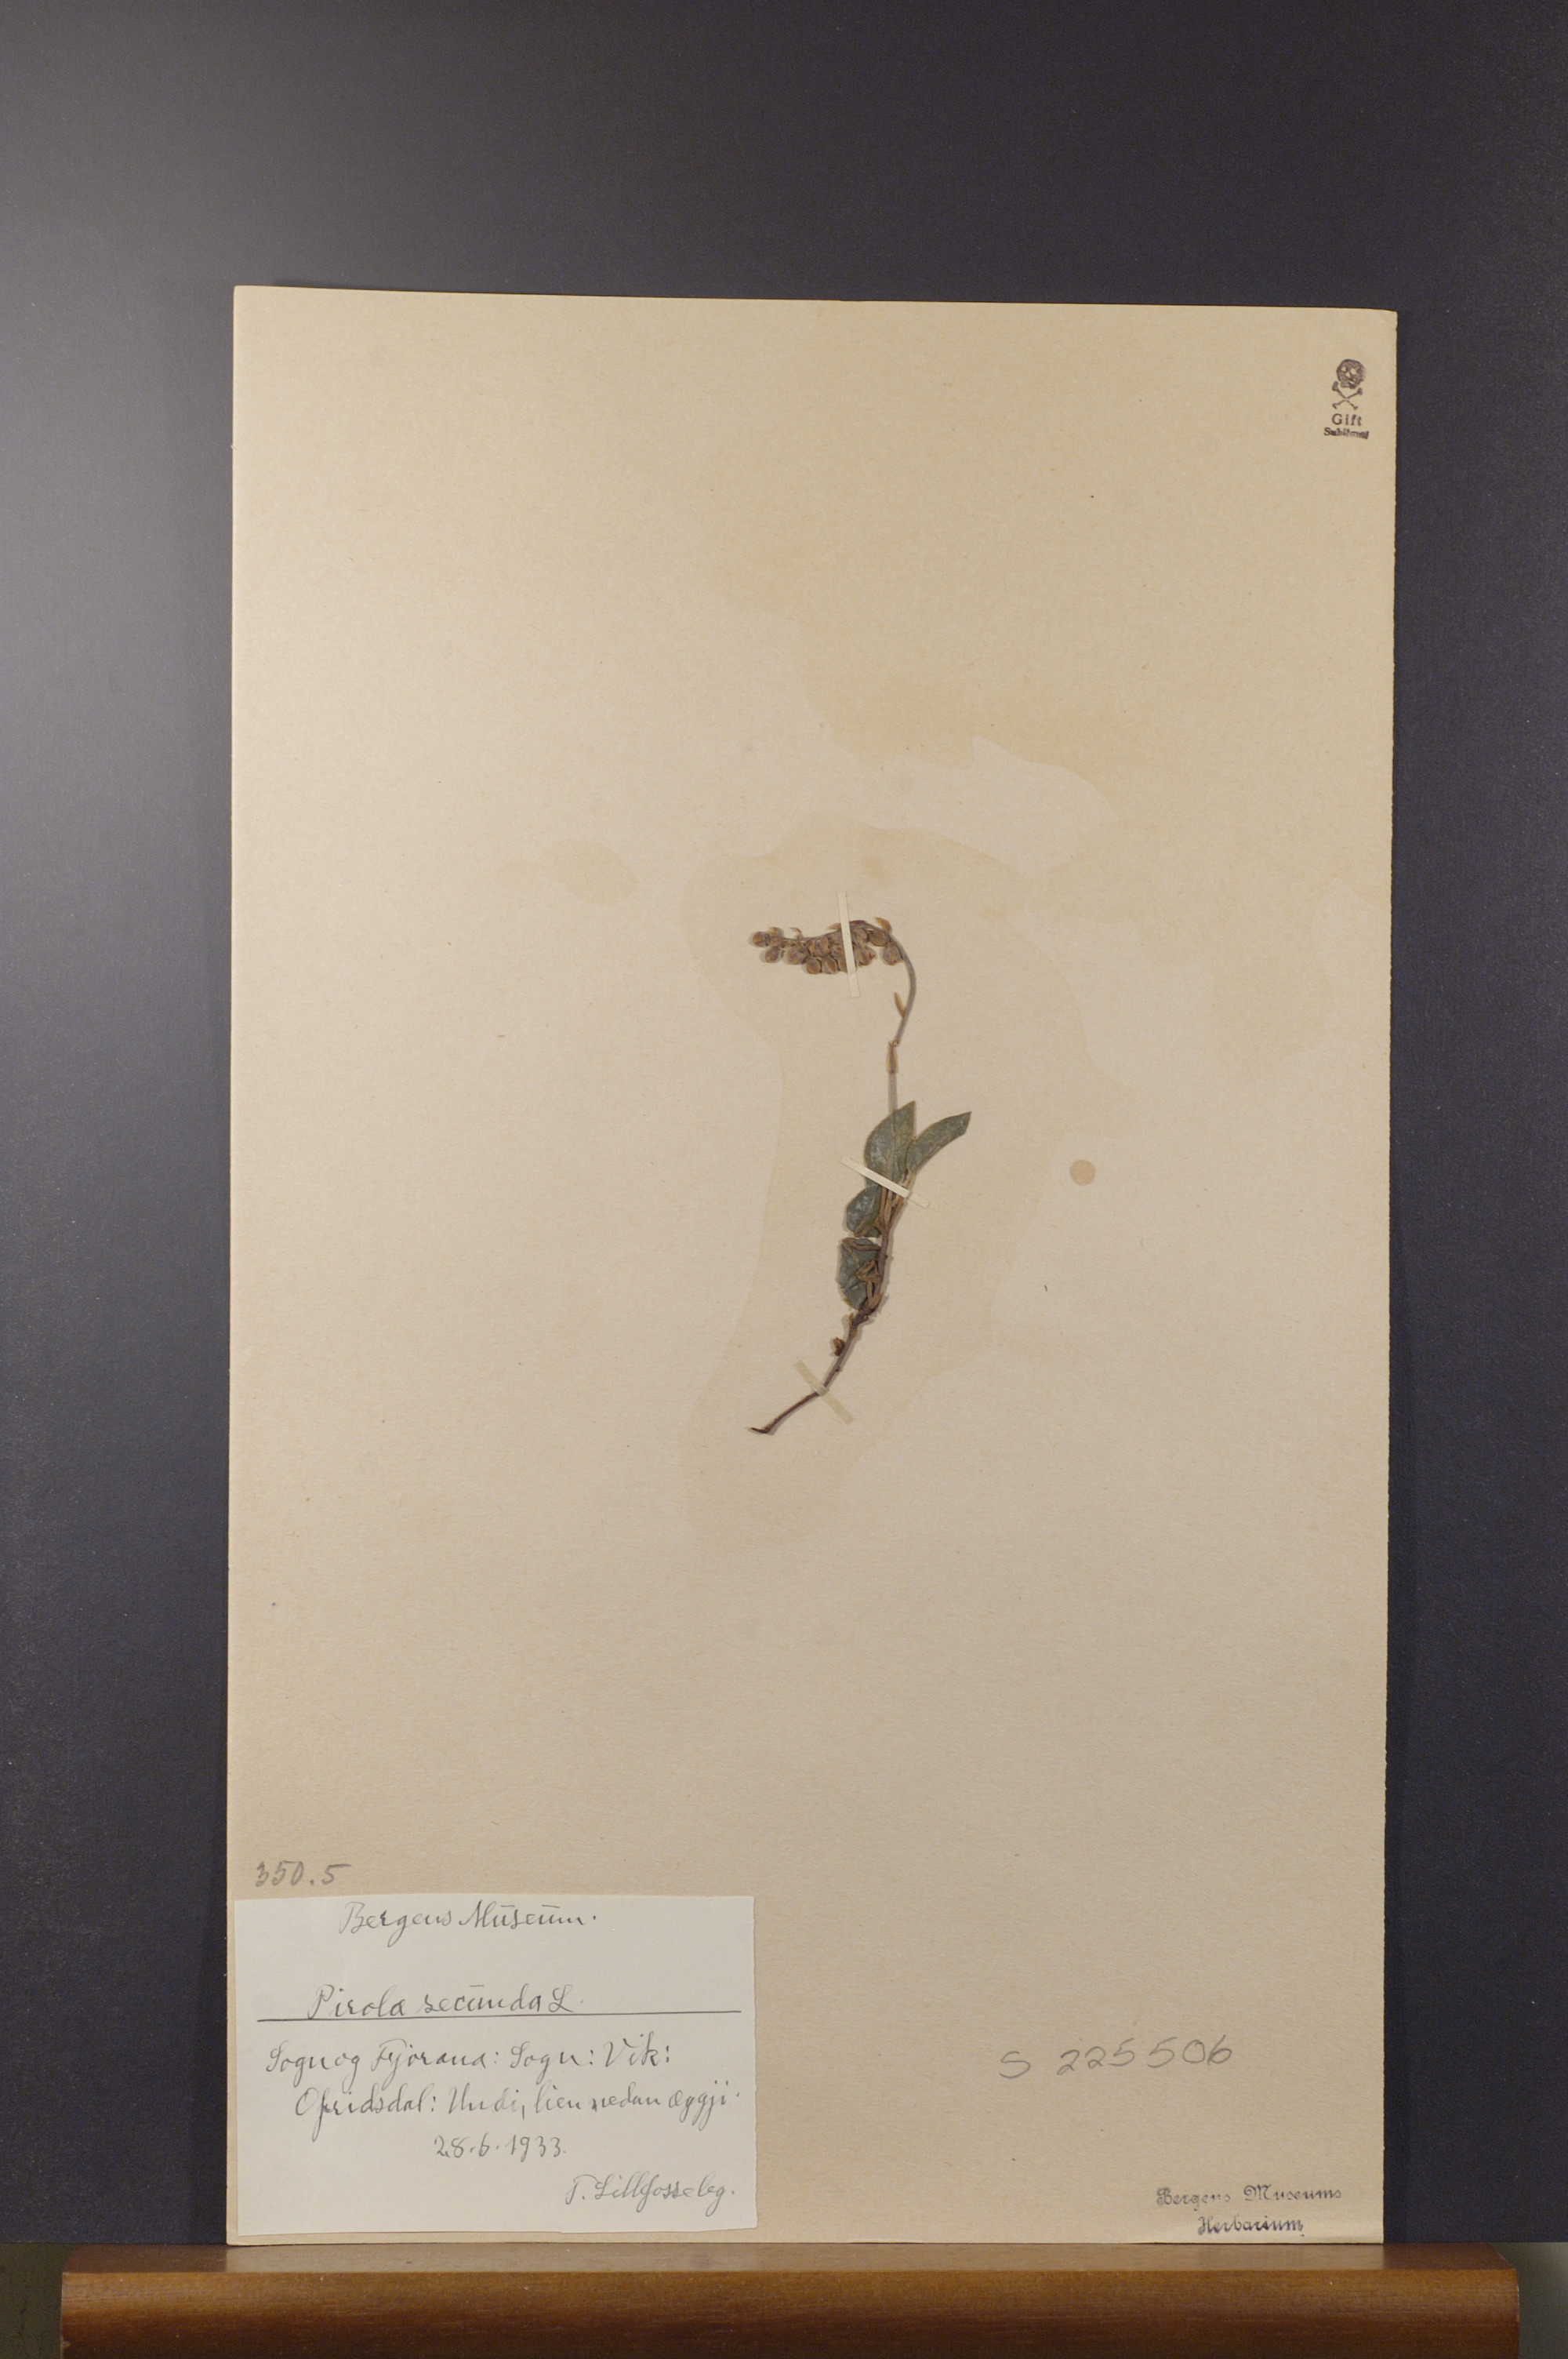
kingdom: Plantae
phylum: Tracheophyta
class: Magnoliopsida
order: Ericales
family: Ericaceae
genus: Orthilia
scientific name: Orthilia secunda
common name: One-sided orthilia
